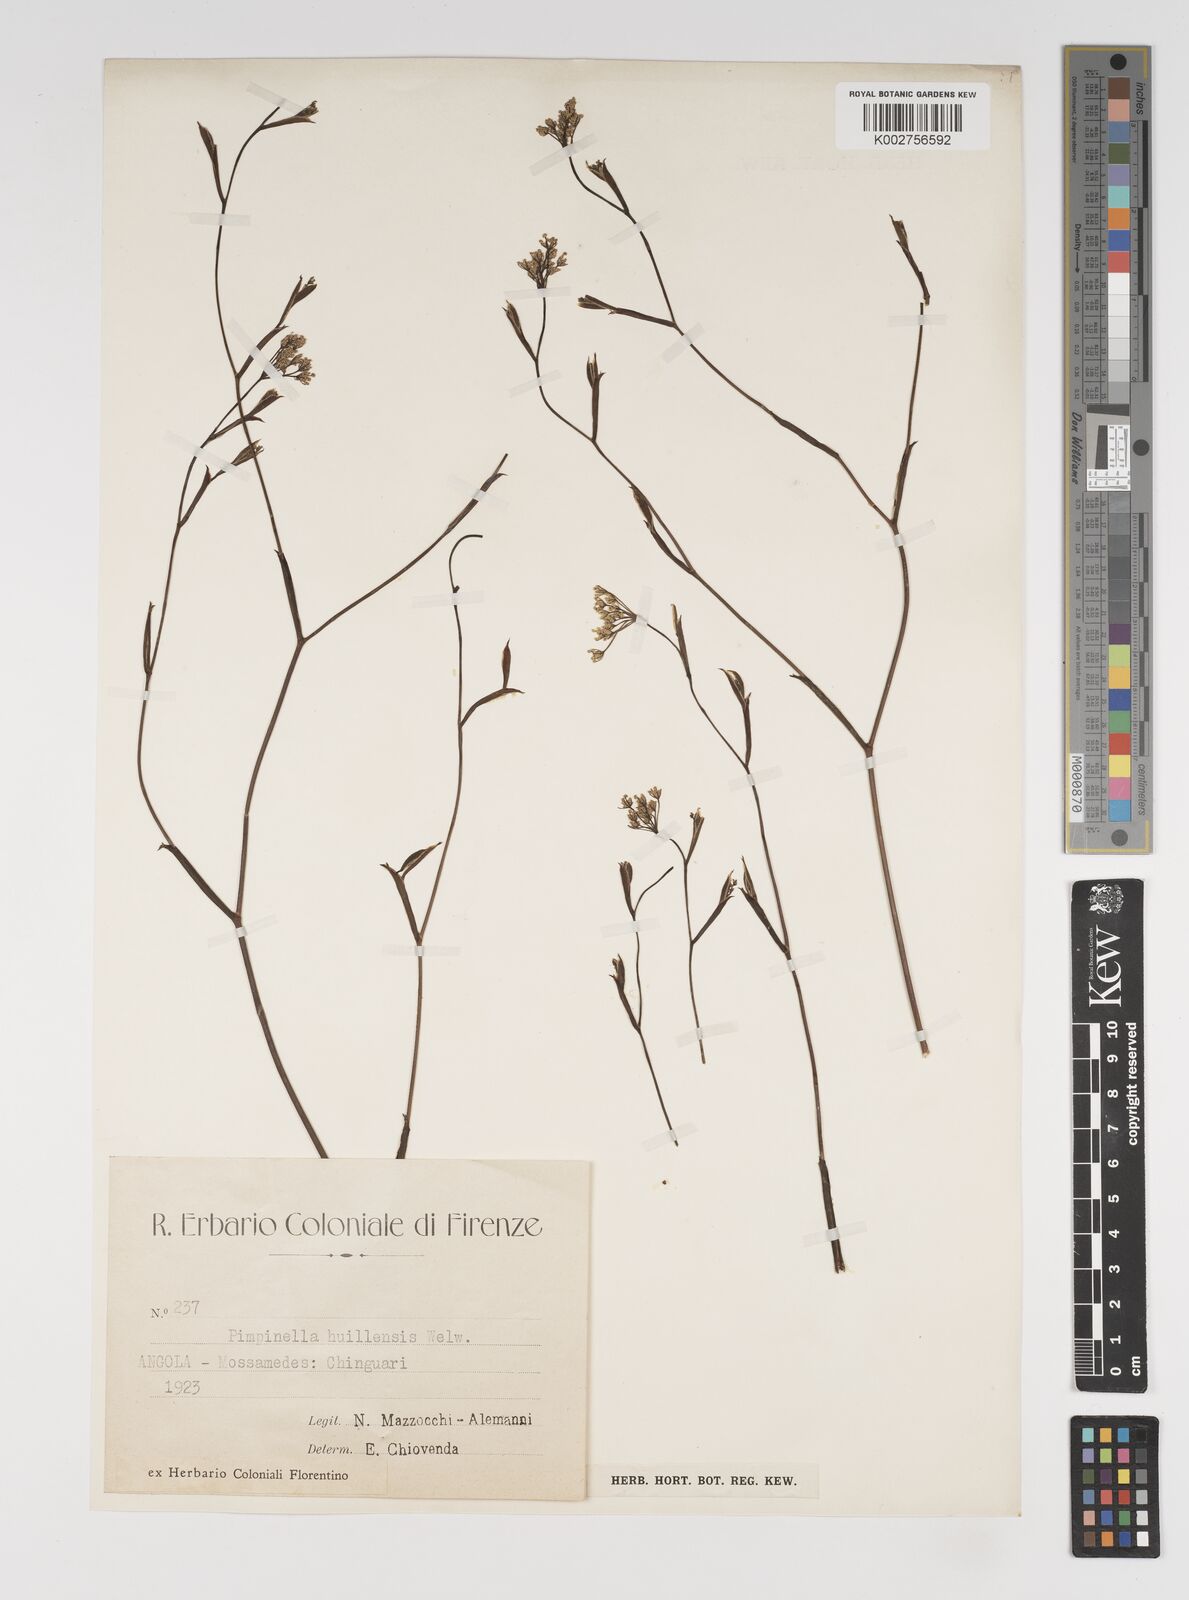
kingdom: Plantae
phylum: Tracheophyta
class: Magnoliopsida
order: Apiales
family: Apiaceae
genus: Pimpinella
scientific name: Pimpinella huillensis
